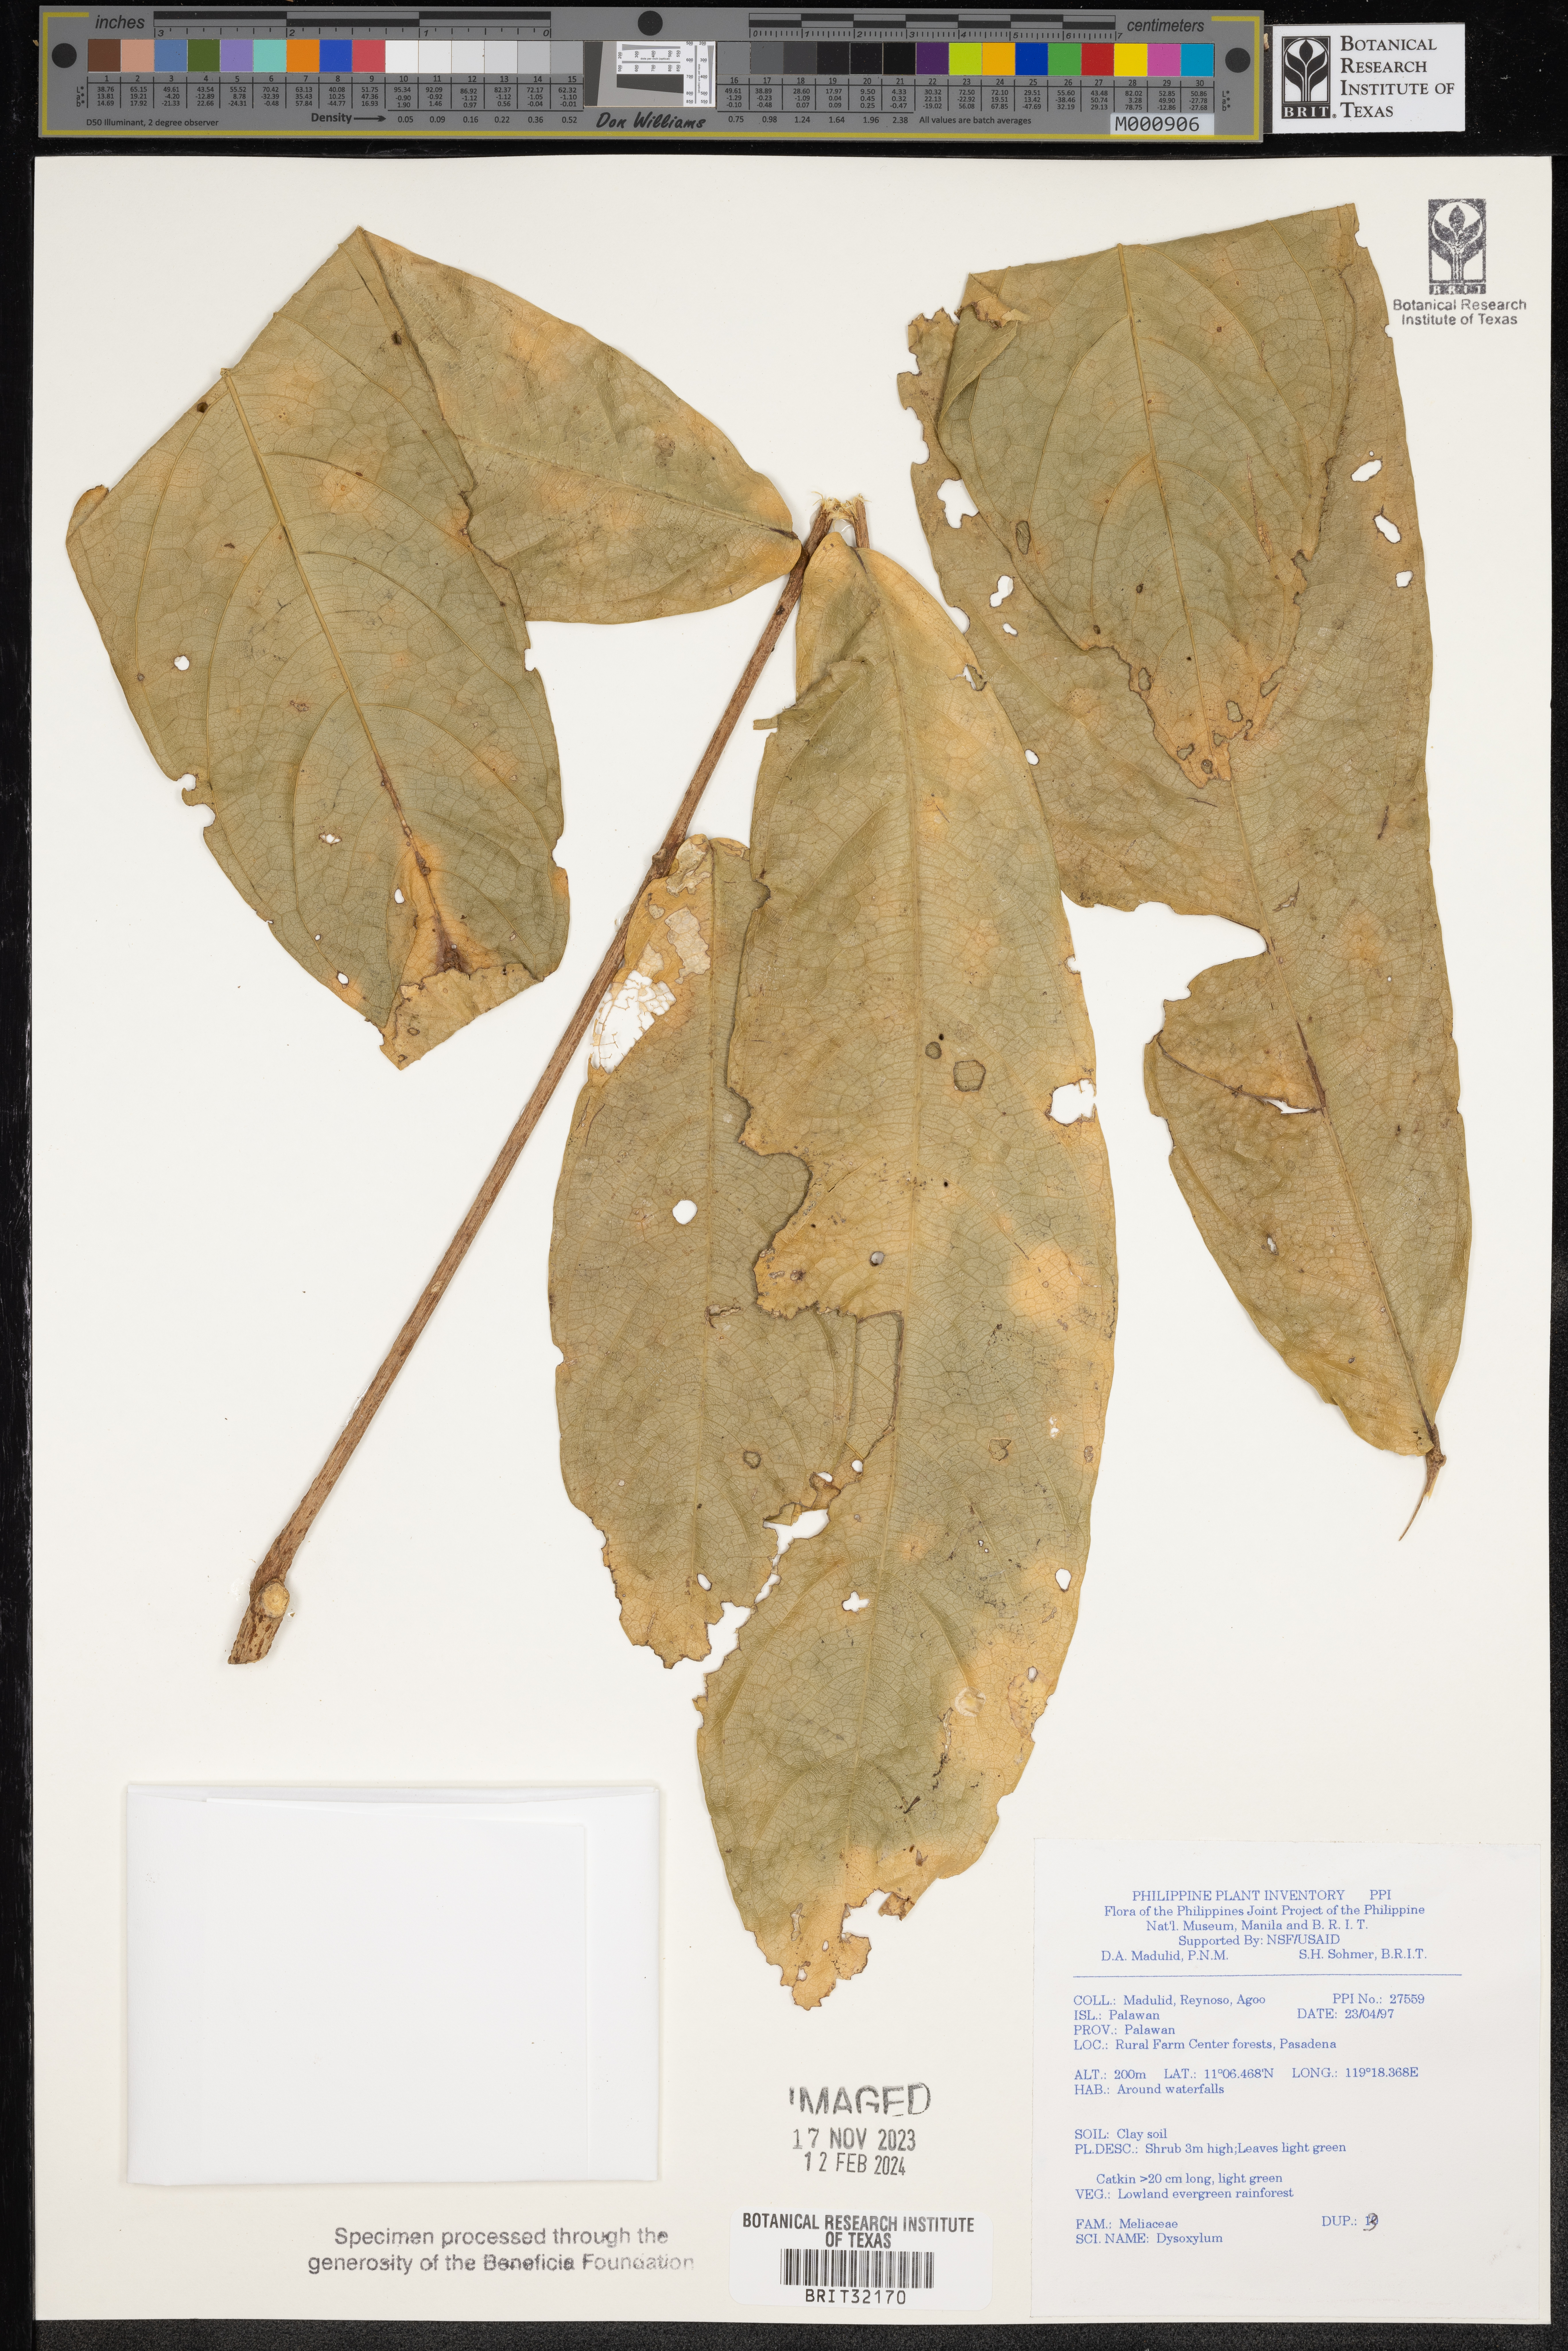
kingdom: Plantae
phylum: Tracheophyta
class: Magnoliopsida
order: Sapindales
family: Meliaceae
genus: Dysoxylum
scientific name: Dysoxylum
